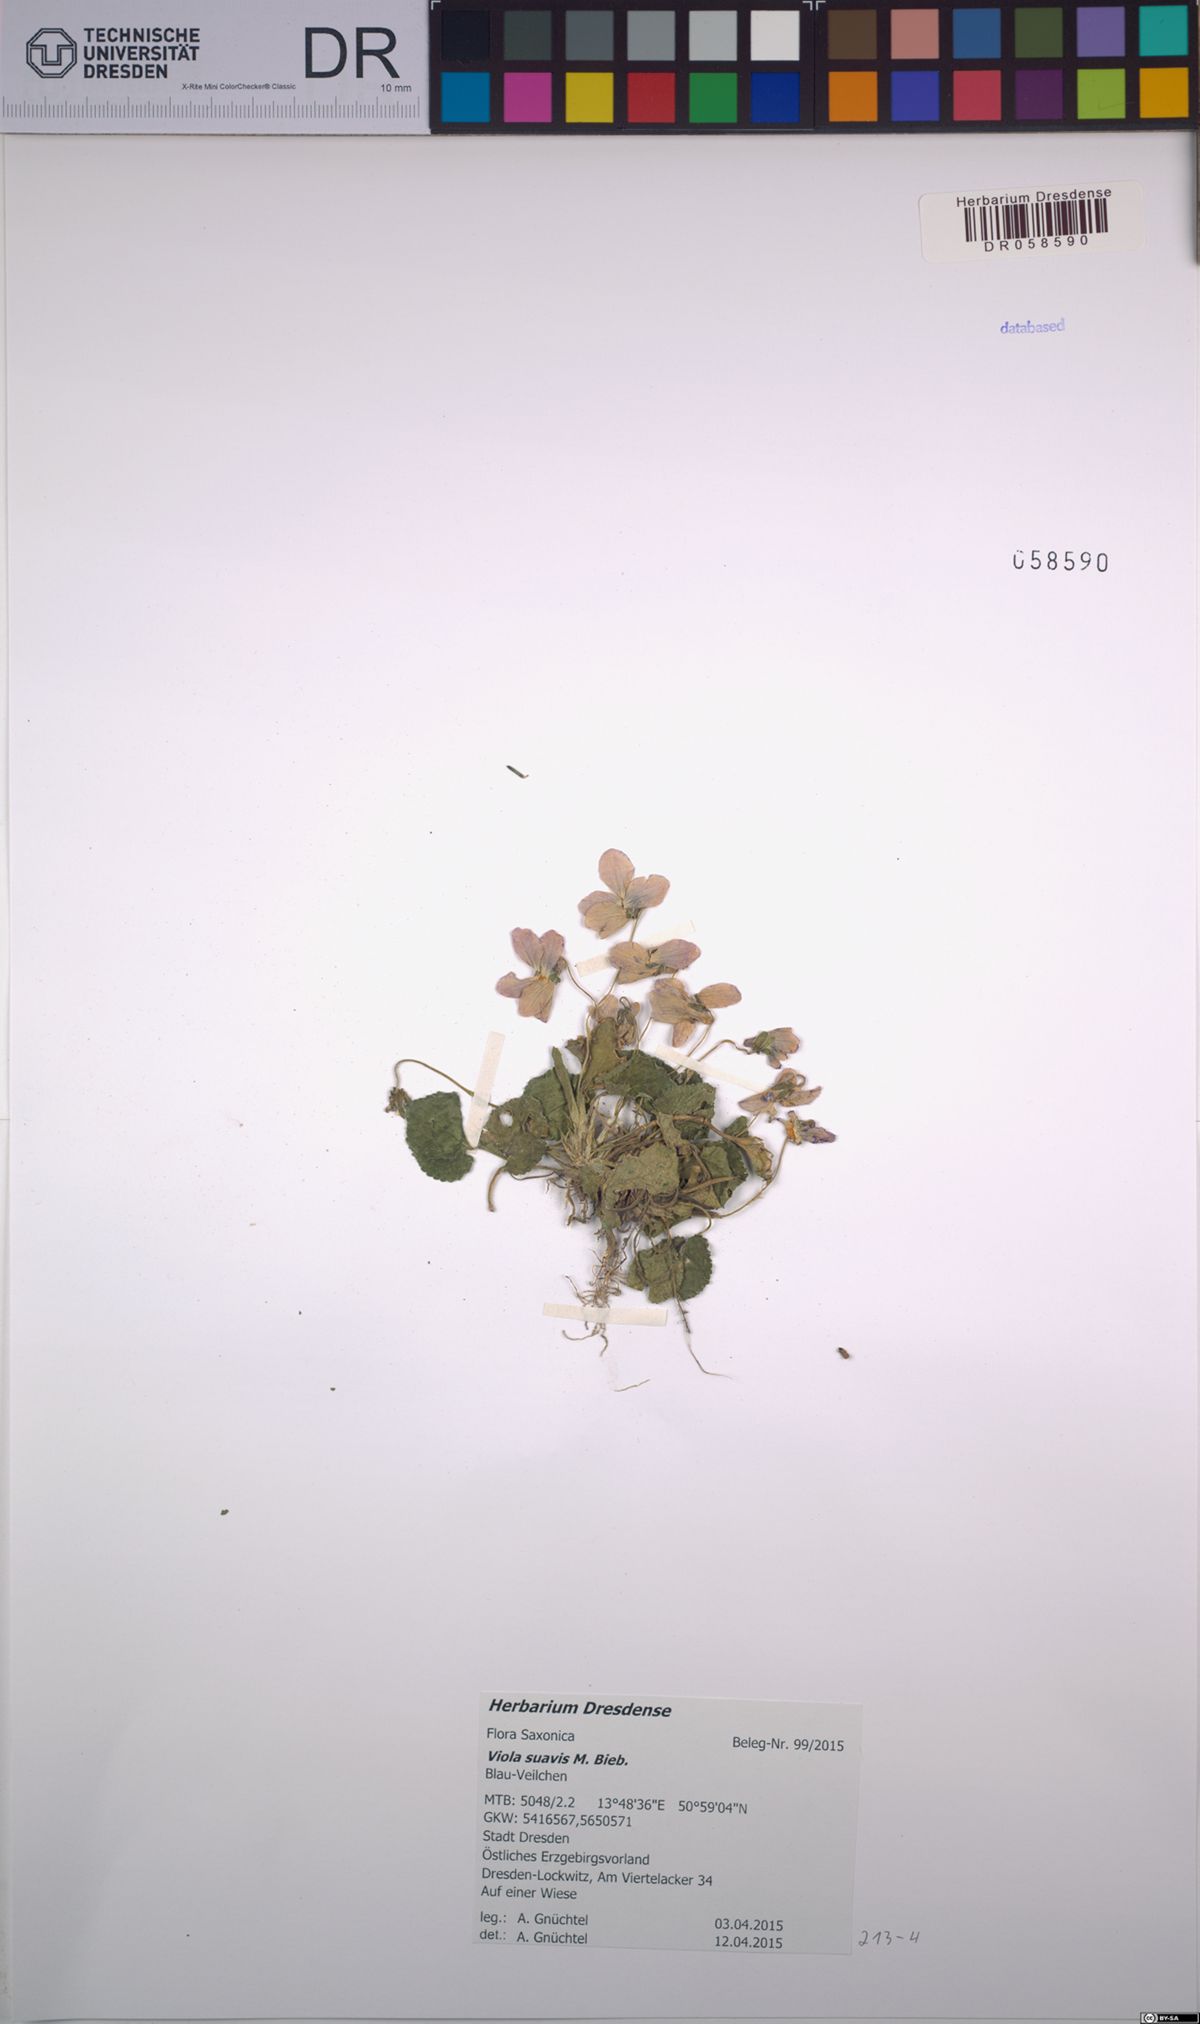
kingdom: Plantae
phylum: Tracheophyta
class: Magnoliopsida
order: Malpighiales
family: Violaceae
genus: Viola
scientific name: Viola suavis
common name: Russian violet
